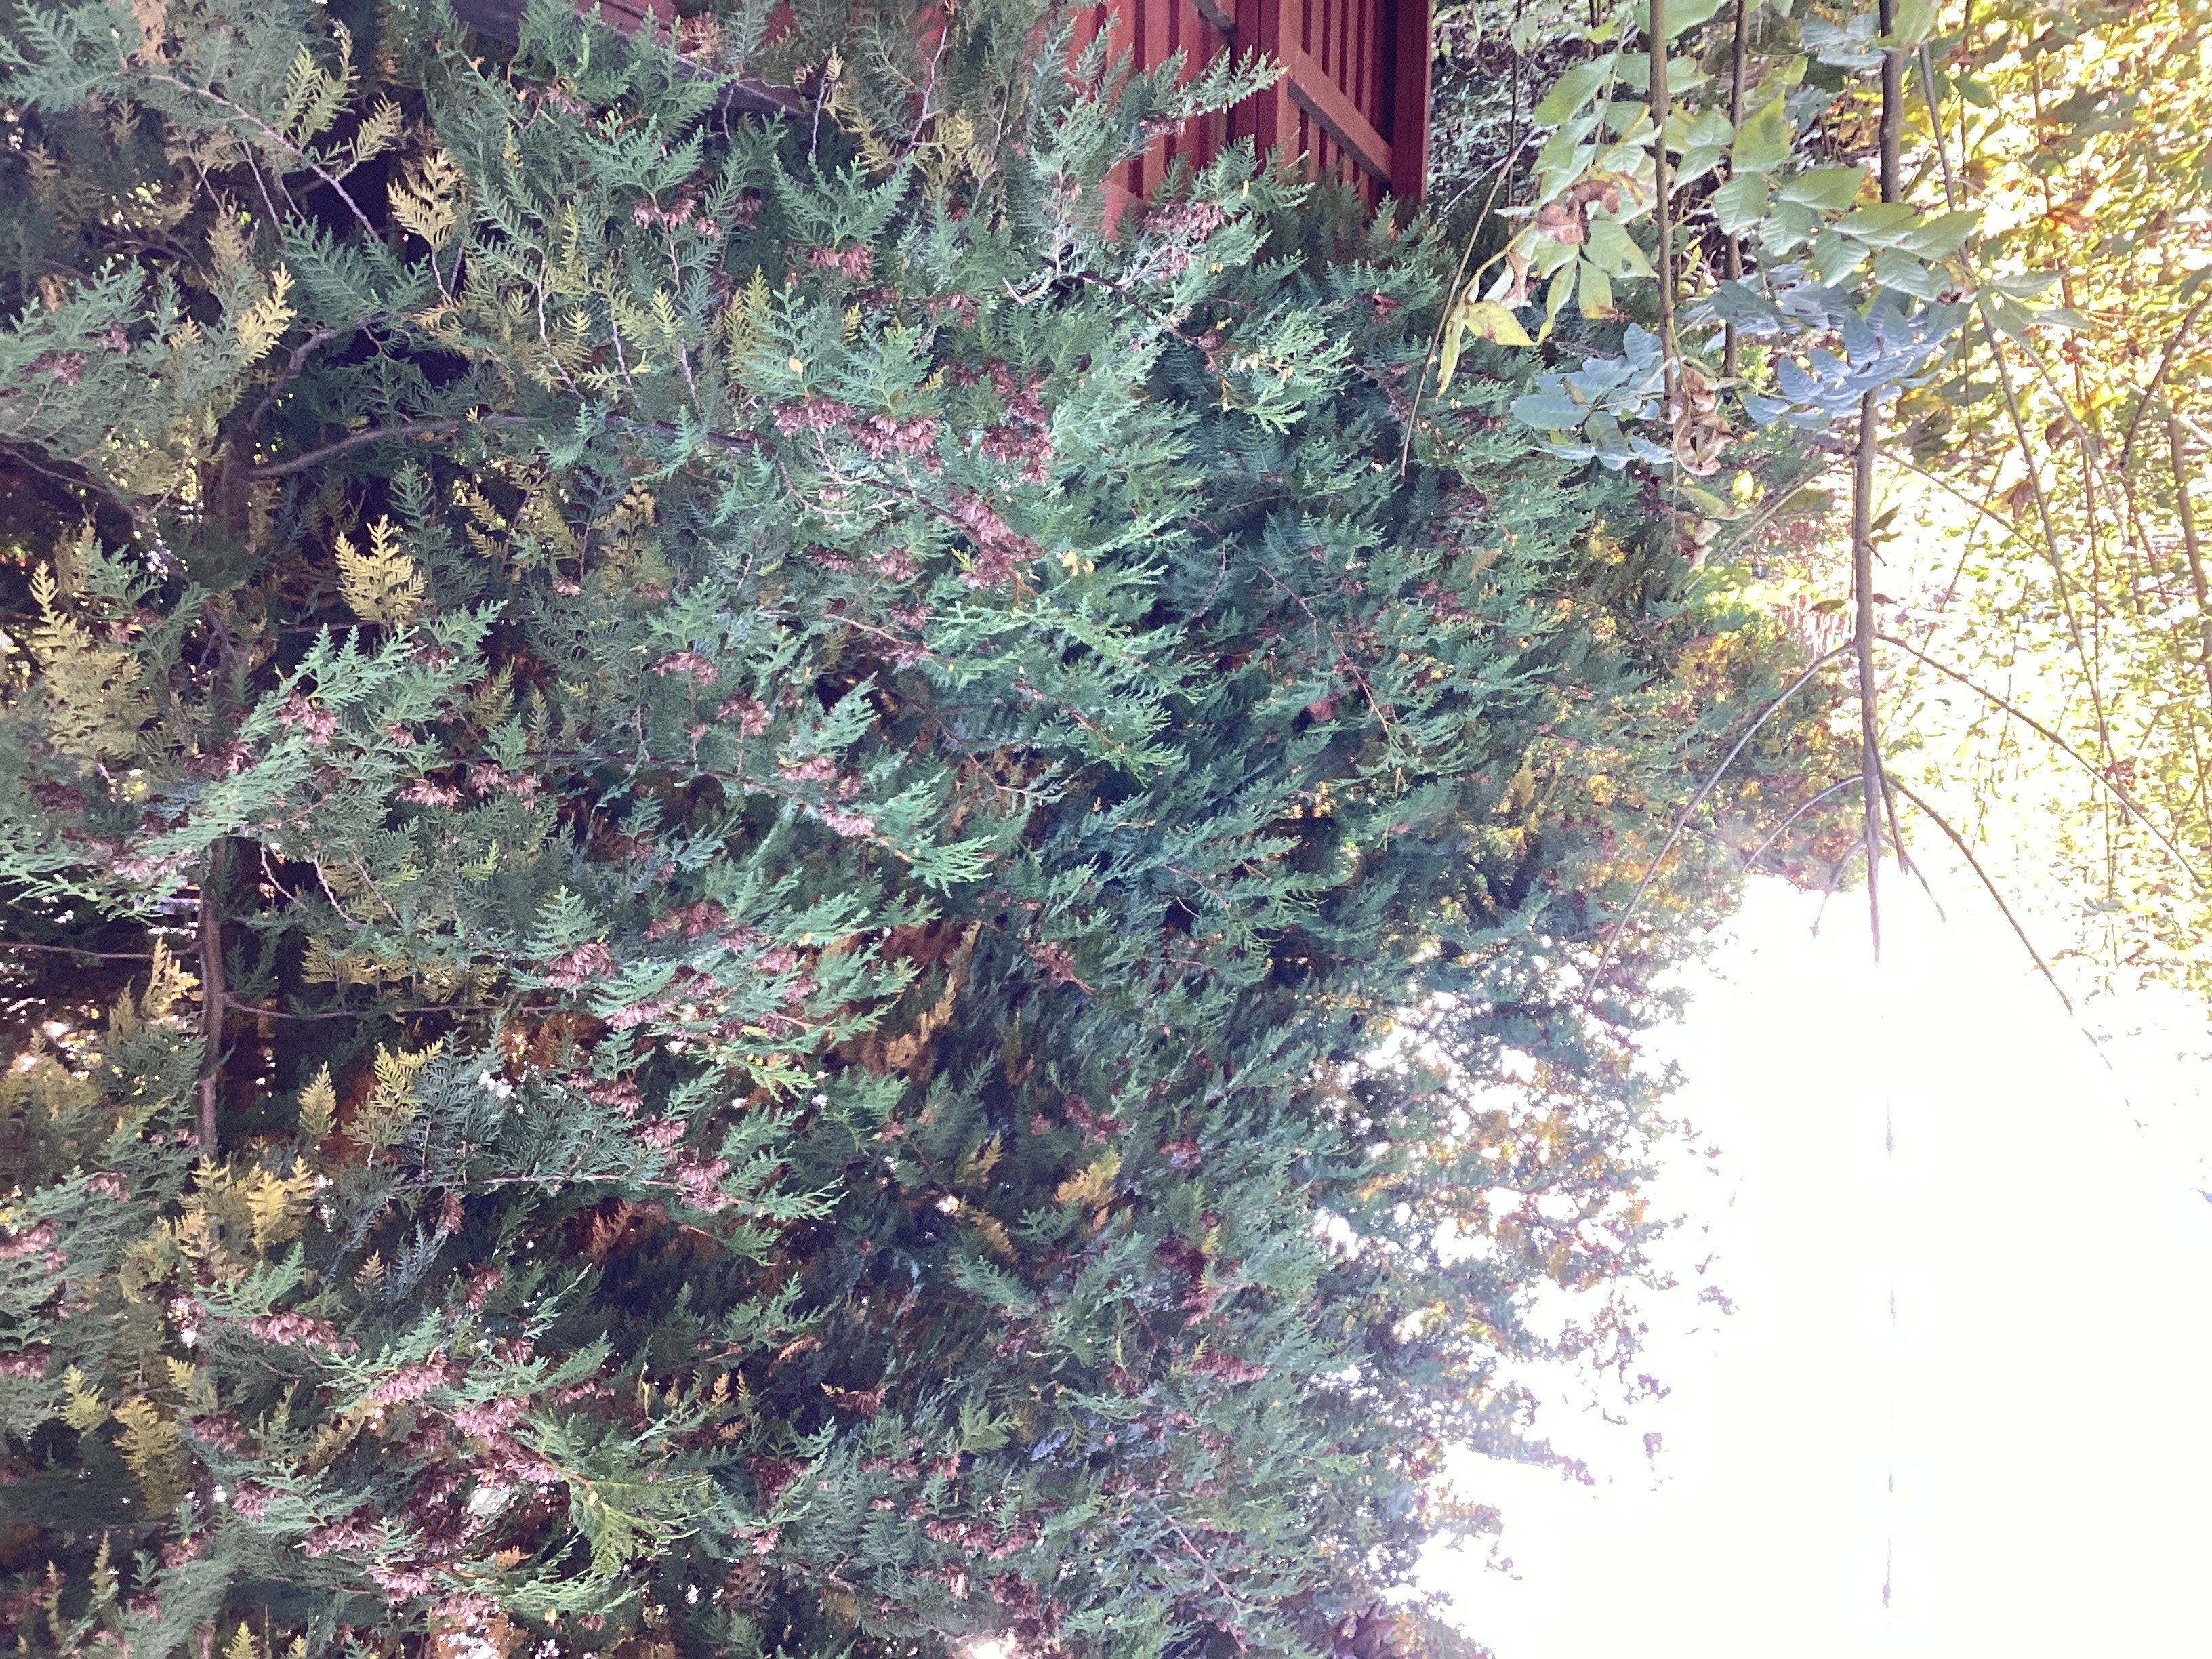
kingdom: Plantae
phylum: Tracheophyta
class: Pinopsida
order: Pinales
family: Cupressaceae
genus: Thuja
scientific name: Thuja occidentalis
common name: tuja
